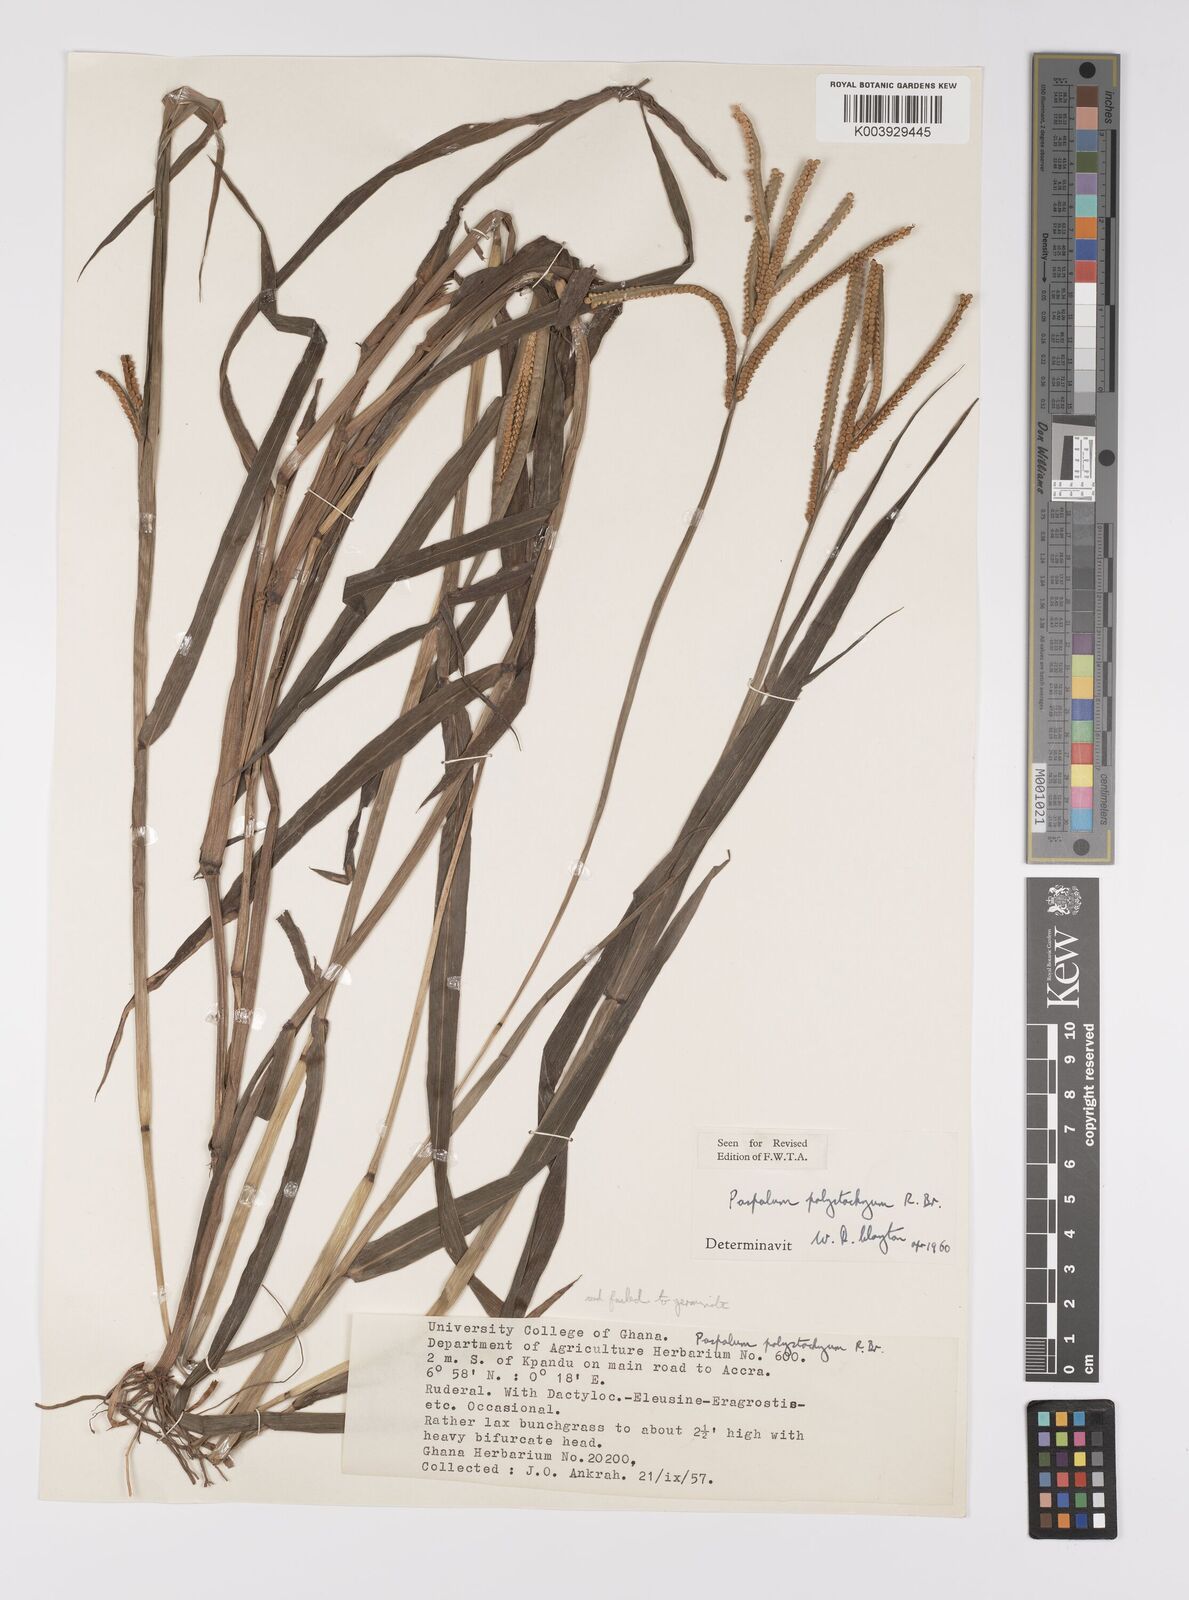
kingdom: Plantae
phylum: Tracheophyta
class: Liliopsida
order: Poales
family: Poaceae
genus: Paspalum
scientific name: Paspalum scrobiculatum
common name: Kodo millet
